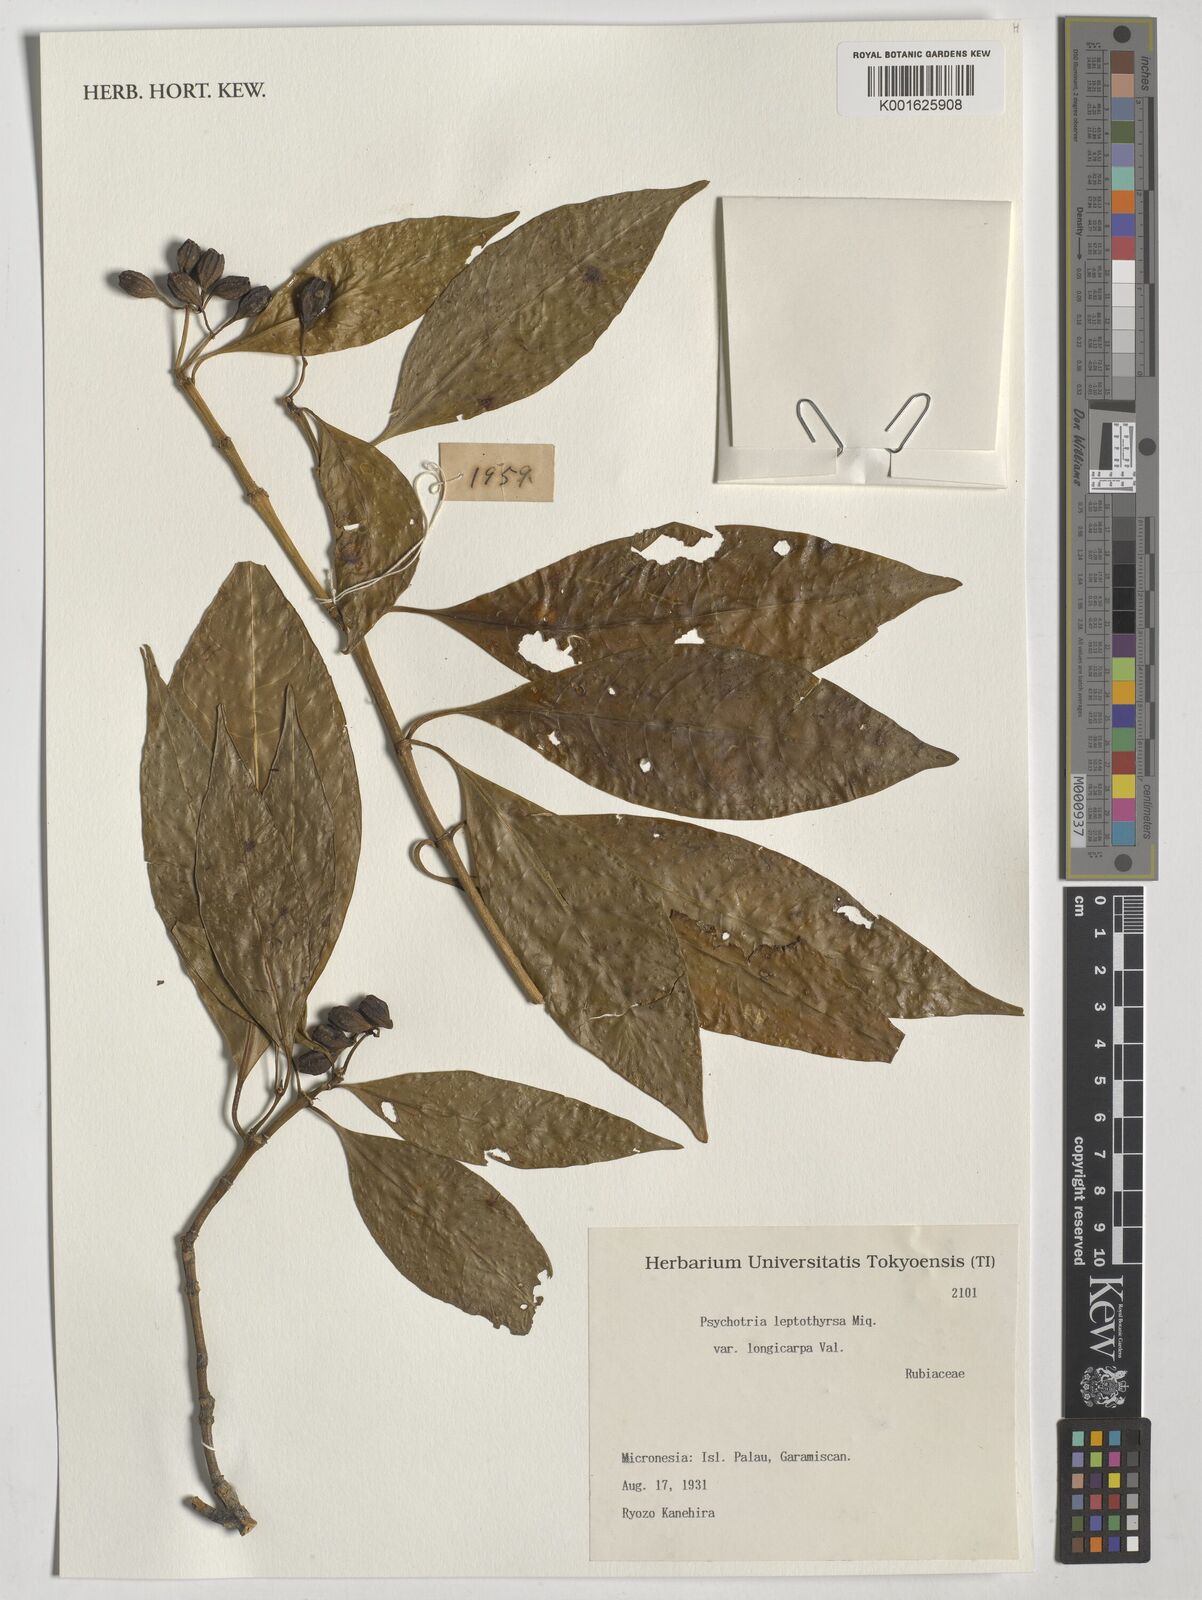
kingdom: Plantae
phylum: Tracheophyta
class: Magnoliopsida
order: Gentianales
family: Rubiaceae
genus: Eumachia
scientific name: Eumachia leptothyrsa
